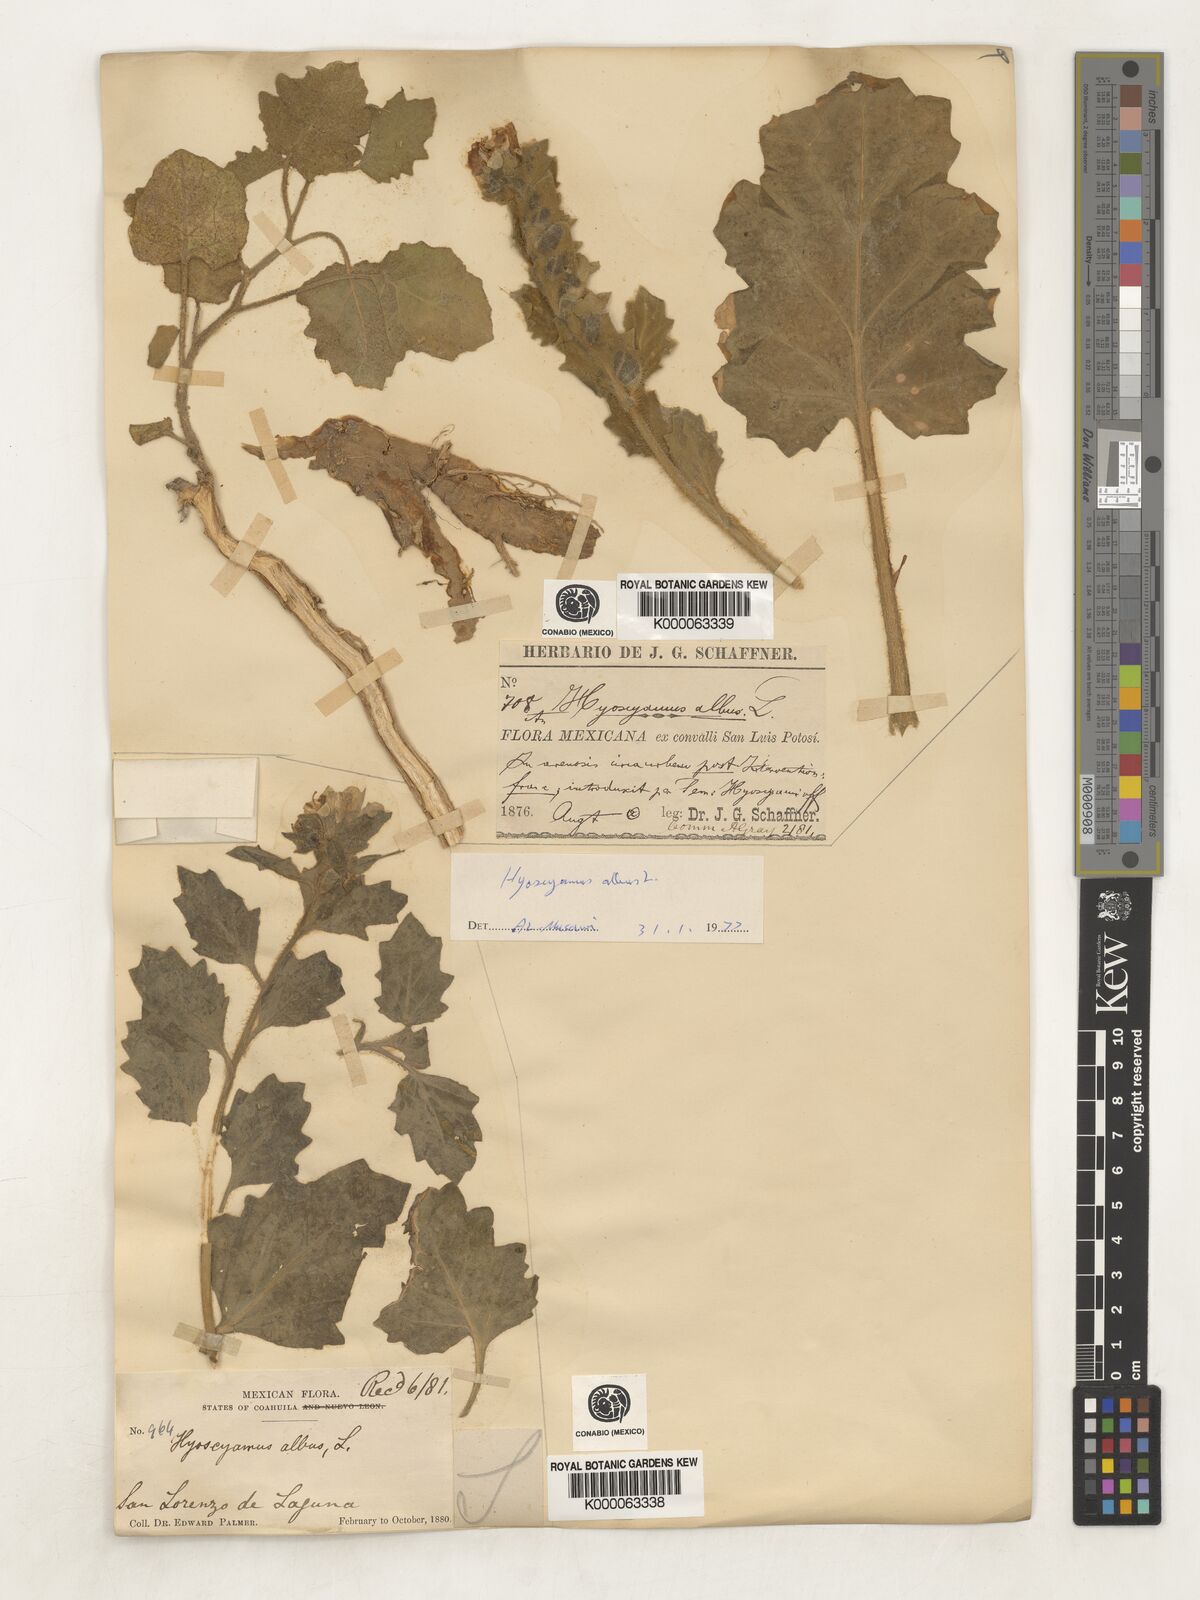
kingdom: Plantae
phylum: Tracheophyta
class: Magnoliopsida
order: Solanales
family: Solanaceae
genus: Hyoscyamus
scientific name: Hyoscyamus albus
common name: White henbane
